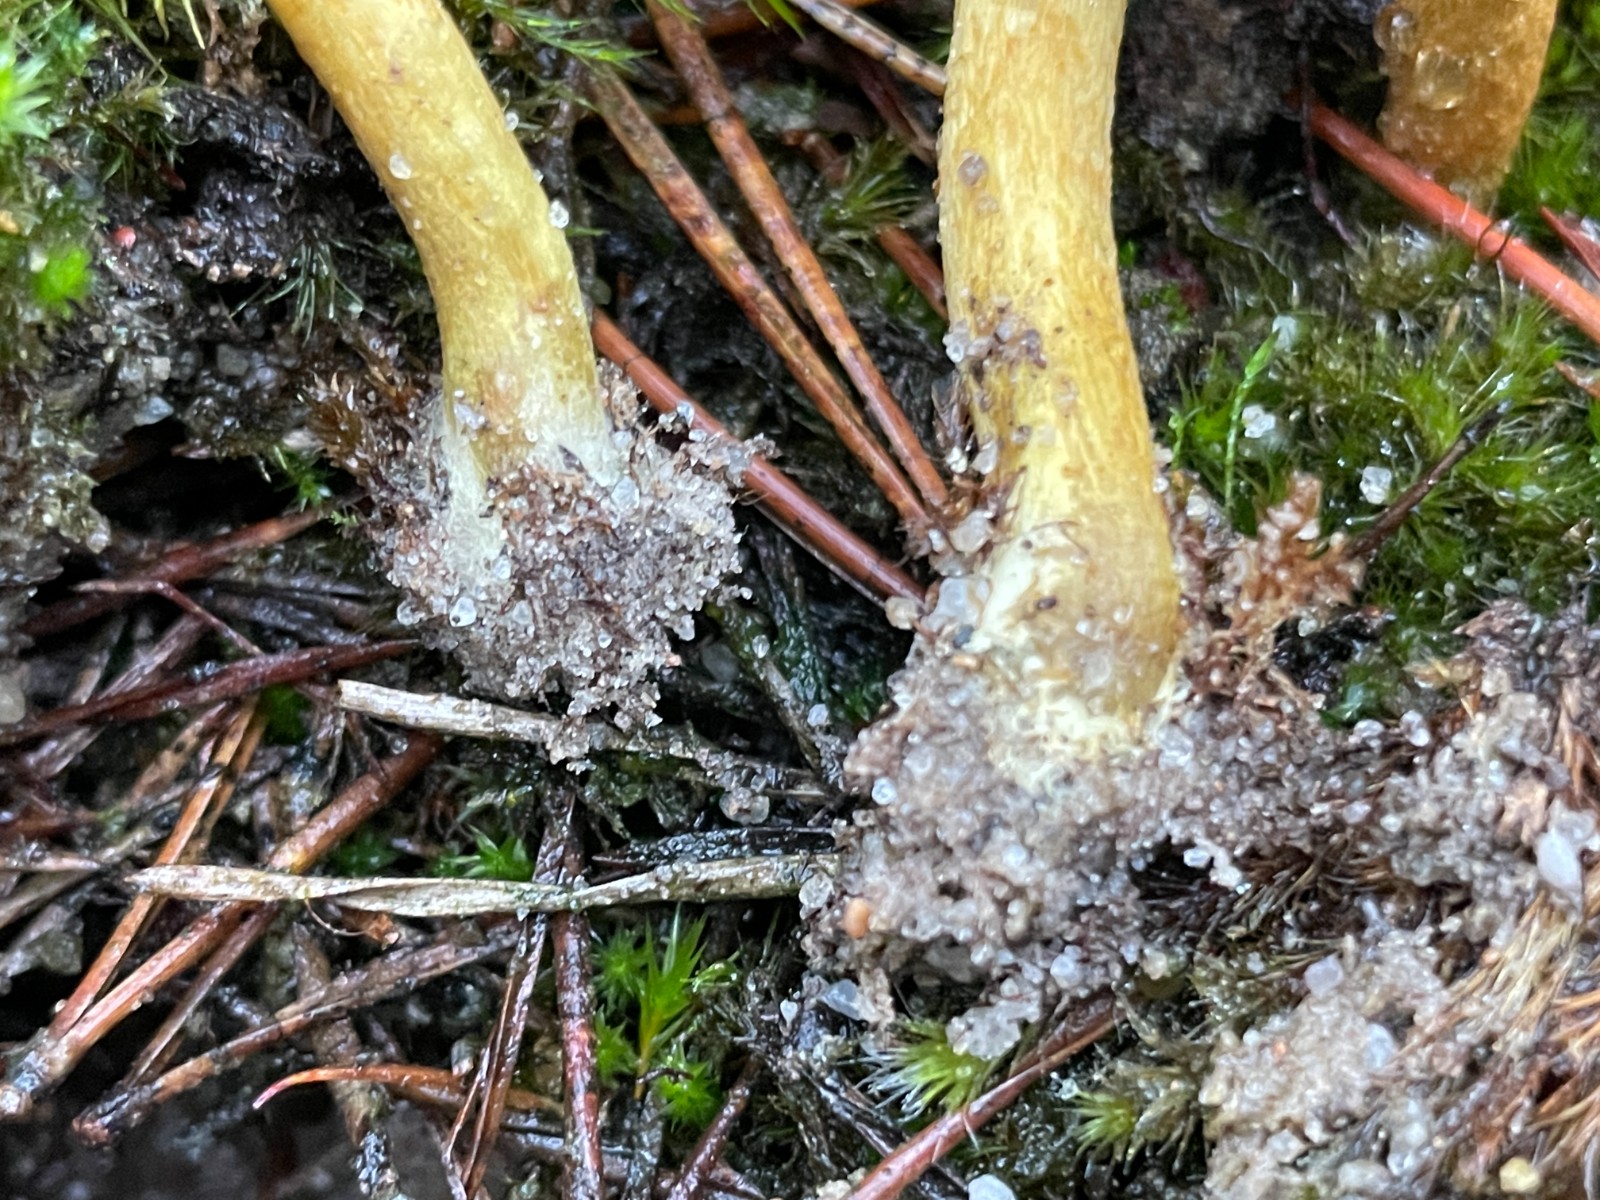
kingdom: Fungi
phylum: Basidiomycota
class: Agaricomycetes
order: Agaricales
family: Cortinariaceae
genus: Cortinarius
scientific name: Cortinarius
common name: gulbladet slørhat
